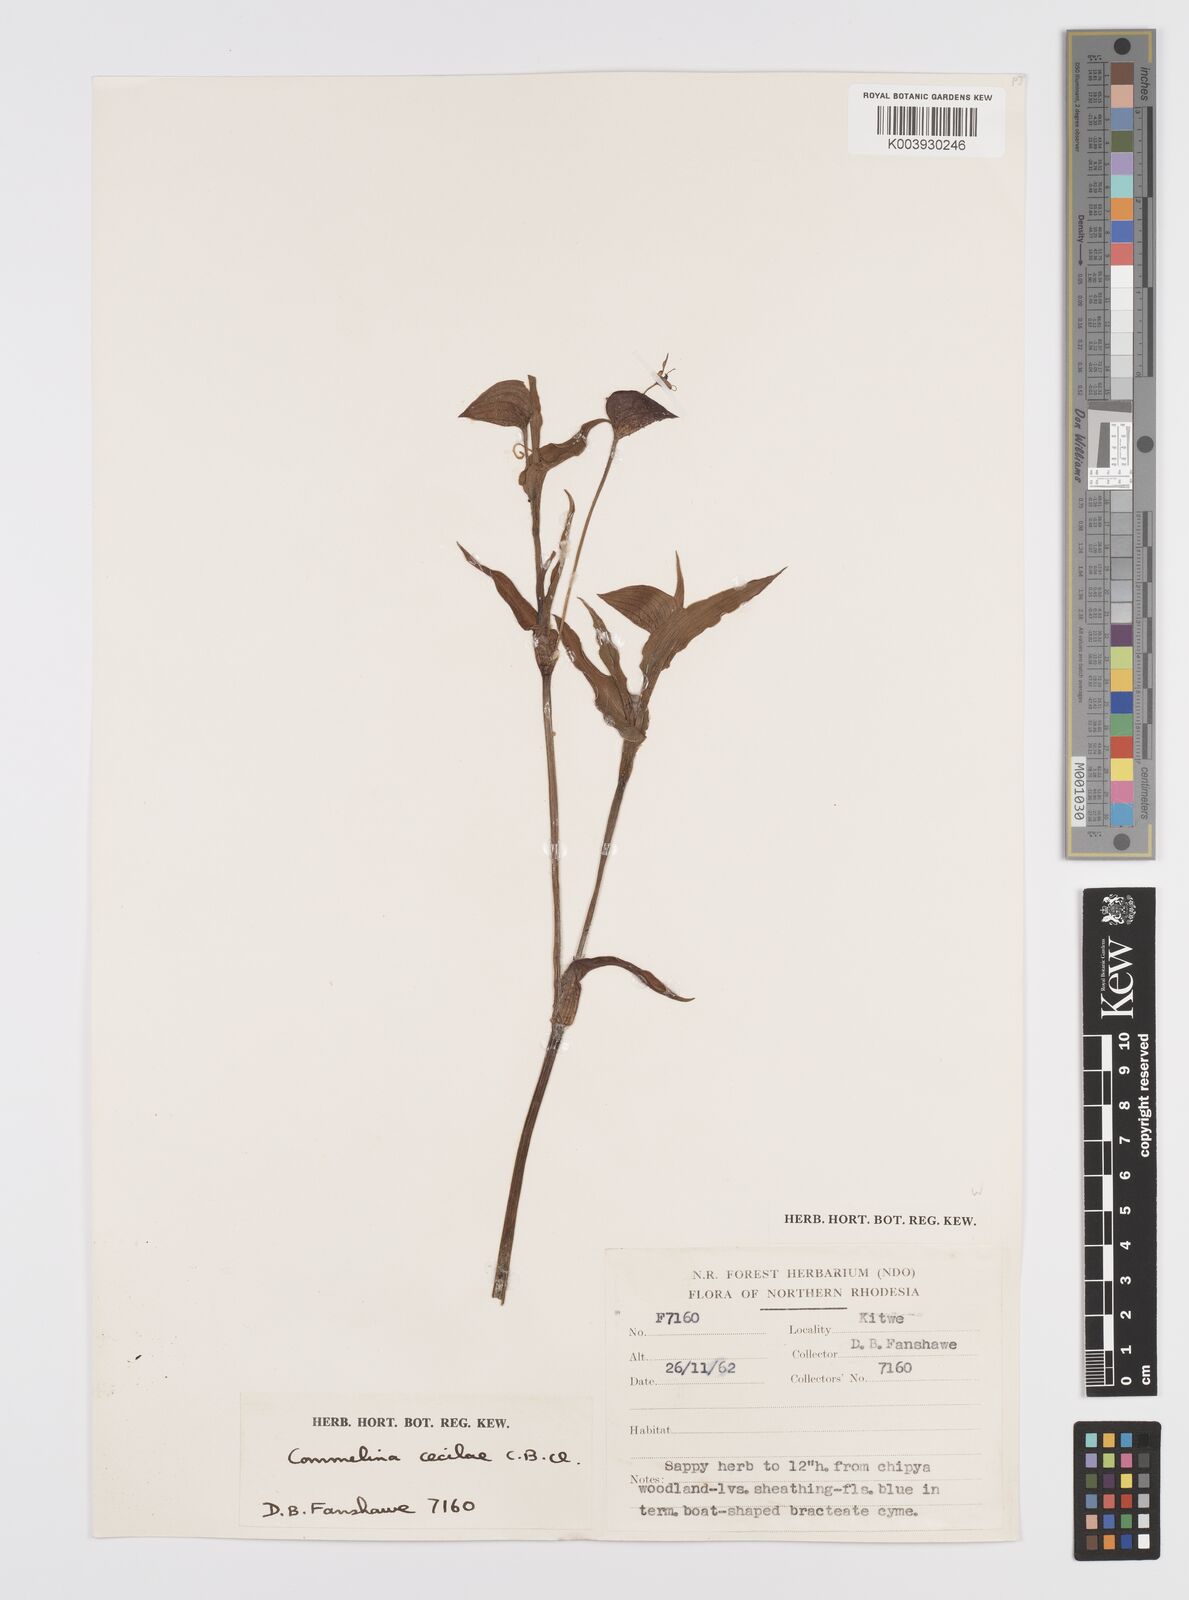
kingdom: Plantae
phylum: Tracheophyta
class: Liliopsida
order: Commelinales
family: Commelinaceae
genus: Commelina
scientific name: Commelina schweinfurthii
